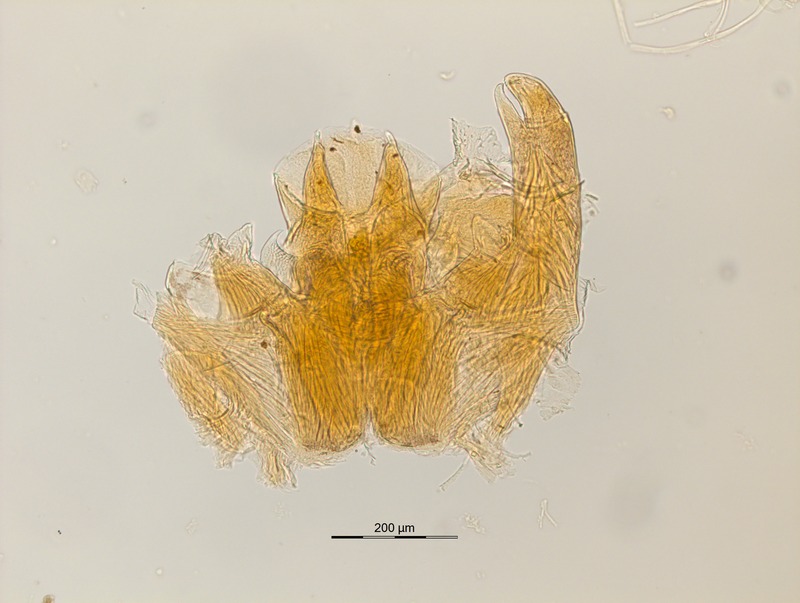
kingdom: Animalia
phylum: Arthropoda
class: Diplopoda
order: Glomerida
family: Glomeridellidae
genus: Glomeridella
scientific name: Glomeridella minima
